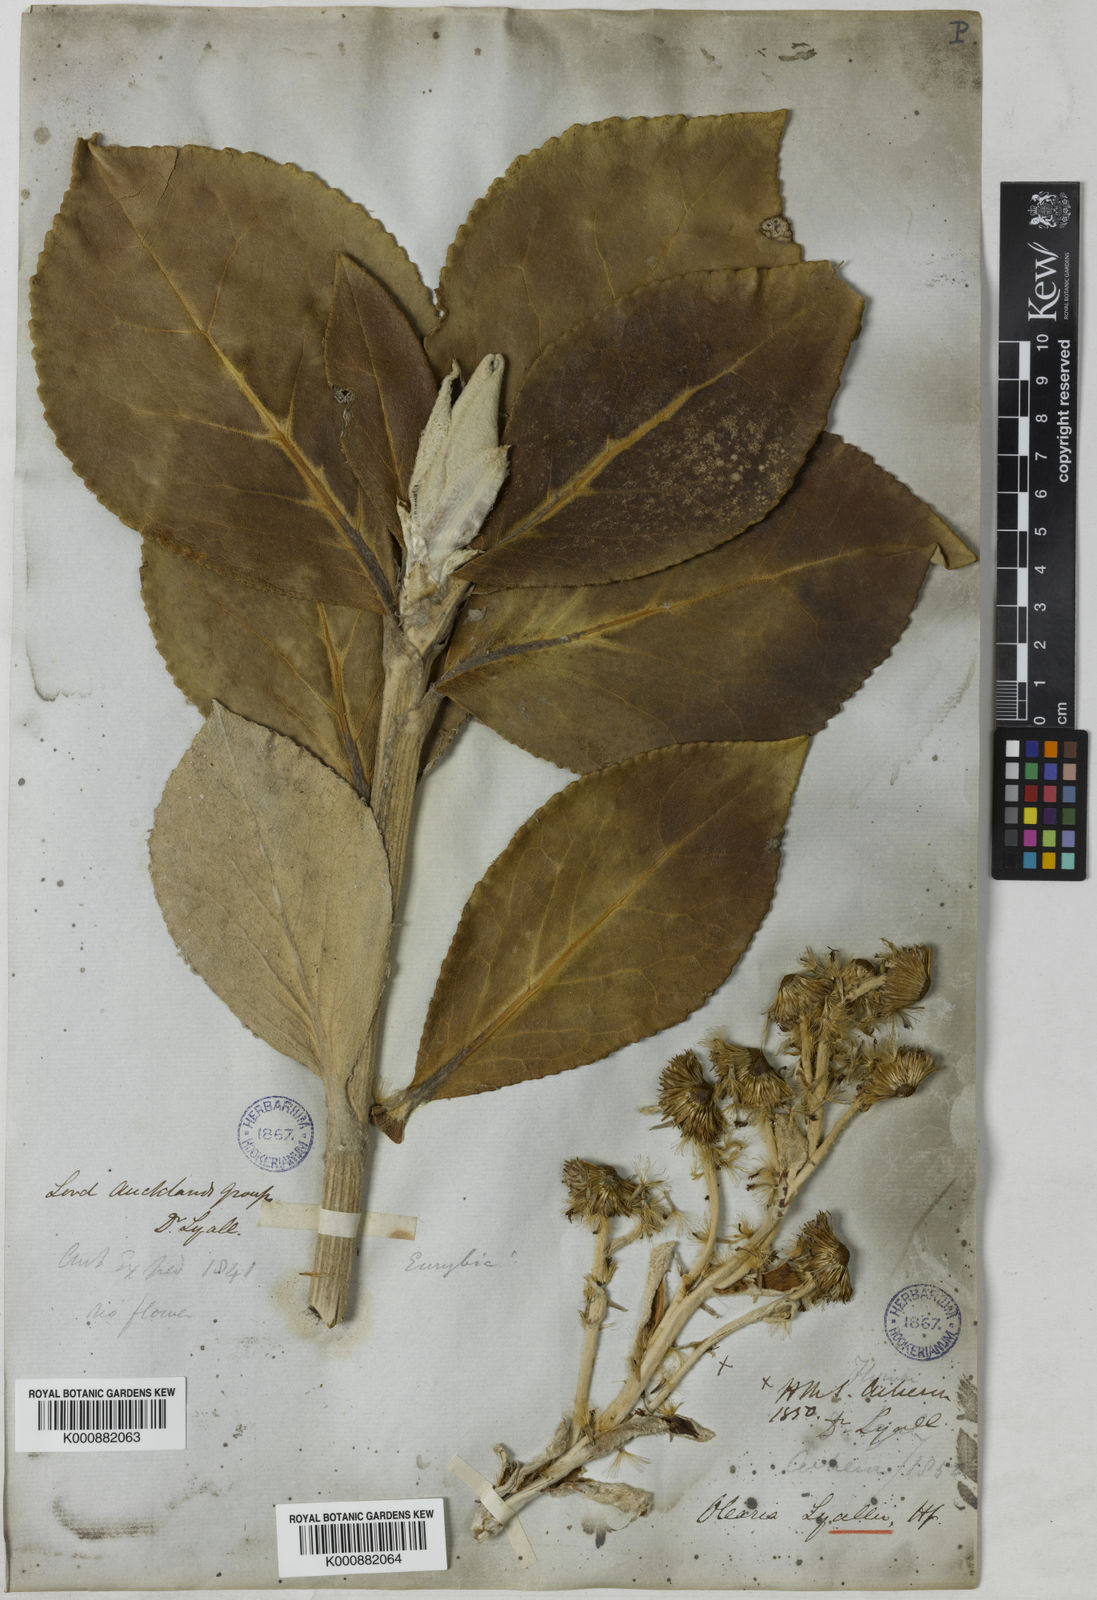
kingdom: Plantae
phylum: Tracheophyta
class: Magnoliopsida
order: Asterales
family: Asteraceae
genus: Macrolearia
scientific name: Macrolearia lyallii
